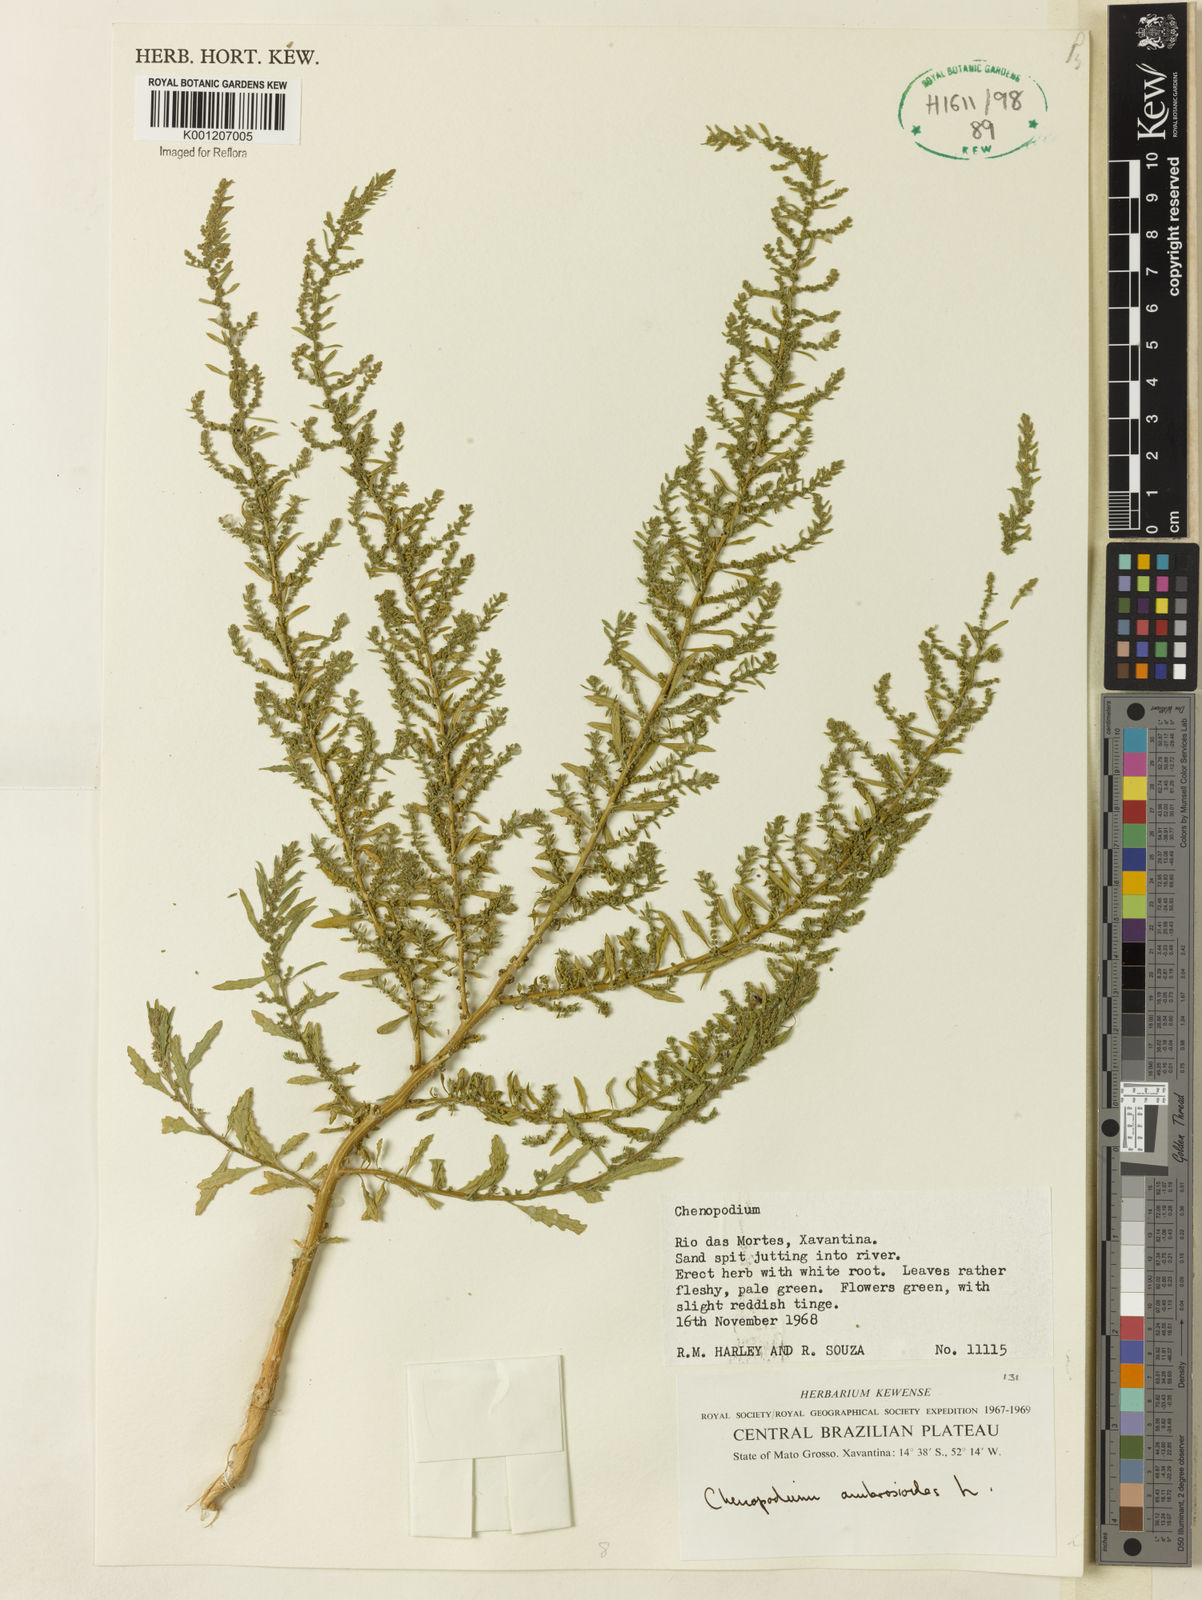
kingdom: Plantae
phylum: Tracheophyta
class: Magnoliopsida
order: Caryophyllales
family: Amaranthaceae
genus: Dysphania
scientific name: Dysphania ambrosioides
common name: Wormseed
